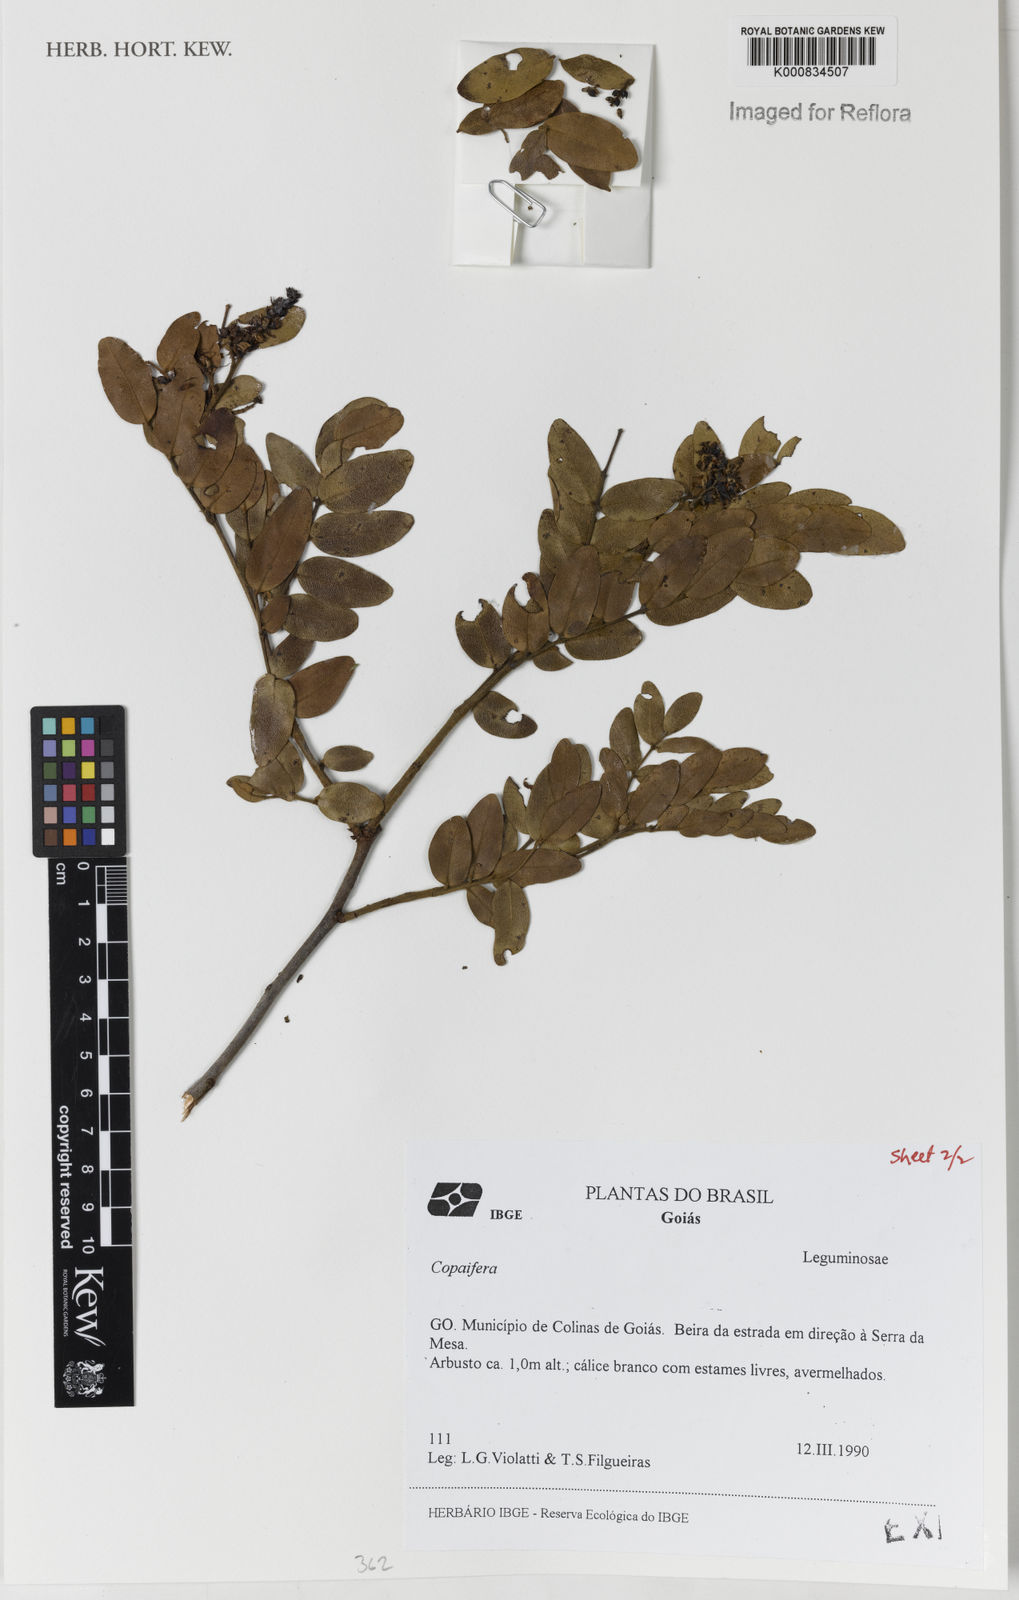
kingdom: Plantae
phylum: Tracheophyta
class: Magnoliopsida
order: Fabales
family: Fabaceae
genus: Copaifera
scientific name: Copaifera
